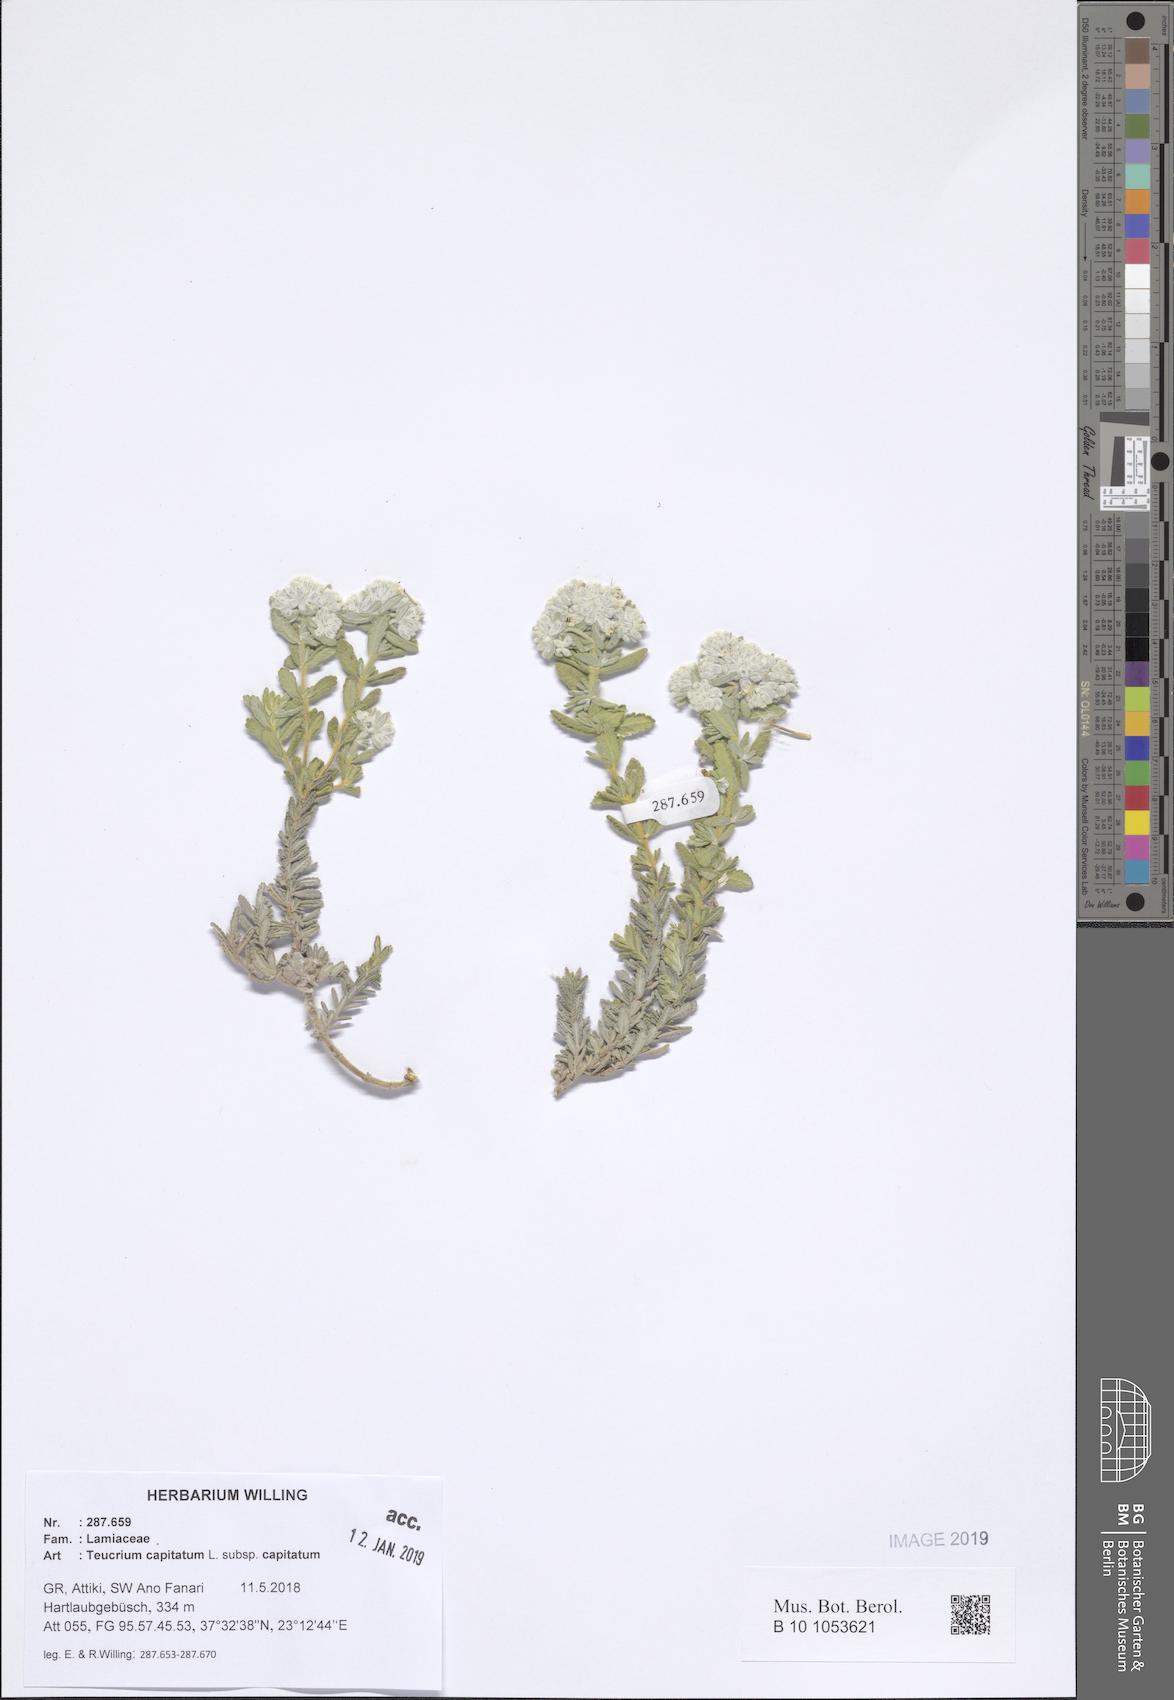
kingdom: Plantae
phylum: Tracheophyta
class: Magnoliopsida
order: Lamiales
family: Lamiaceae
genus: Teucrium
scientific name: Teucrium capitatum
